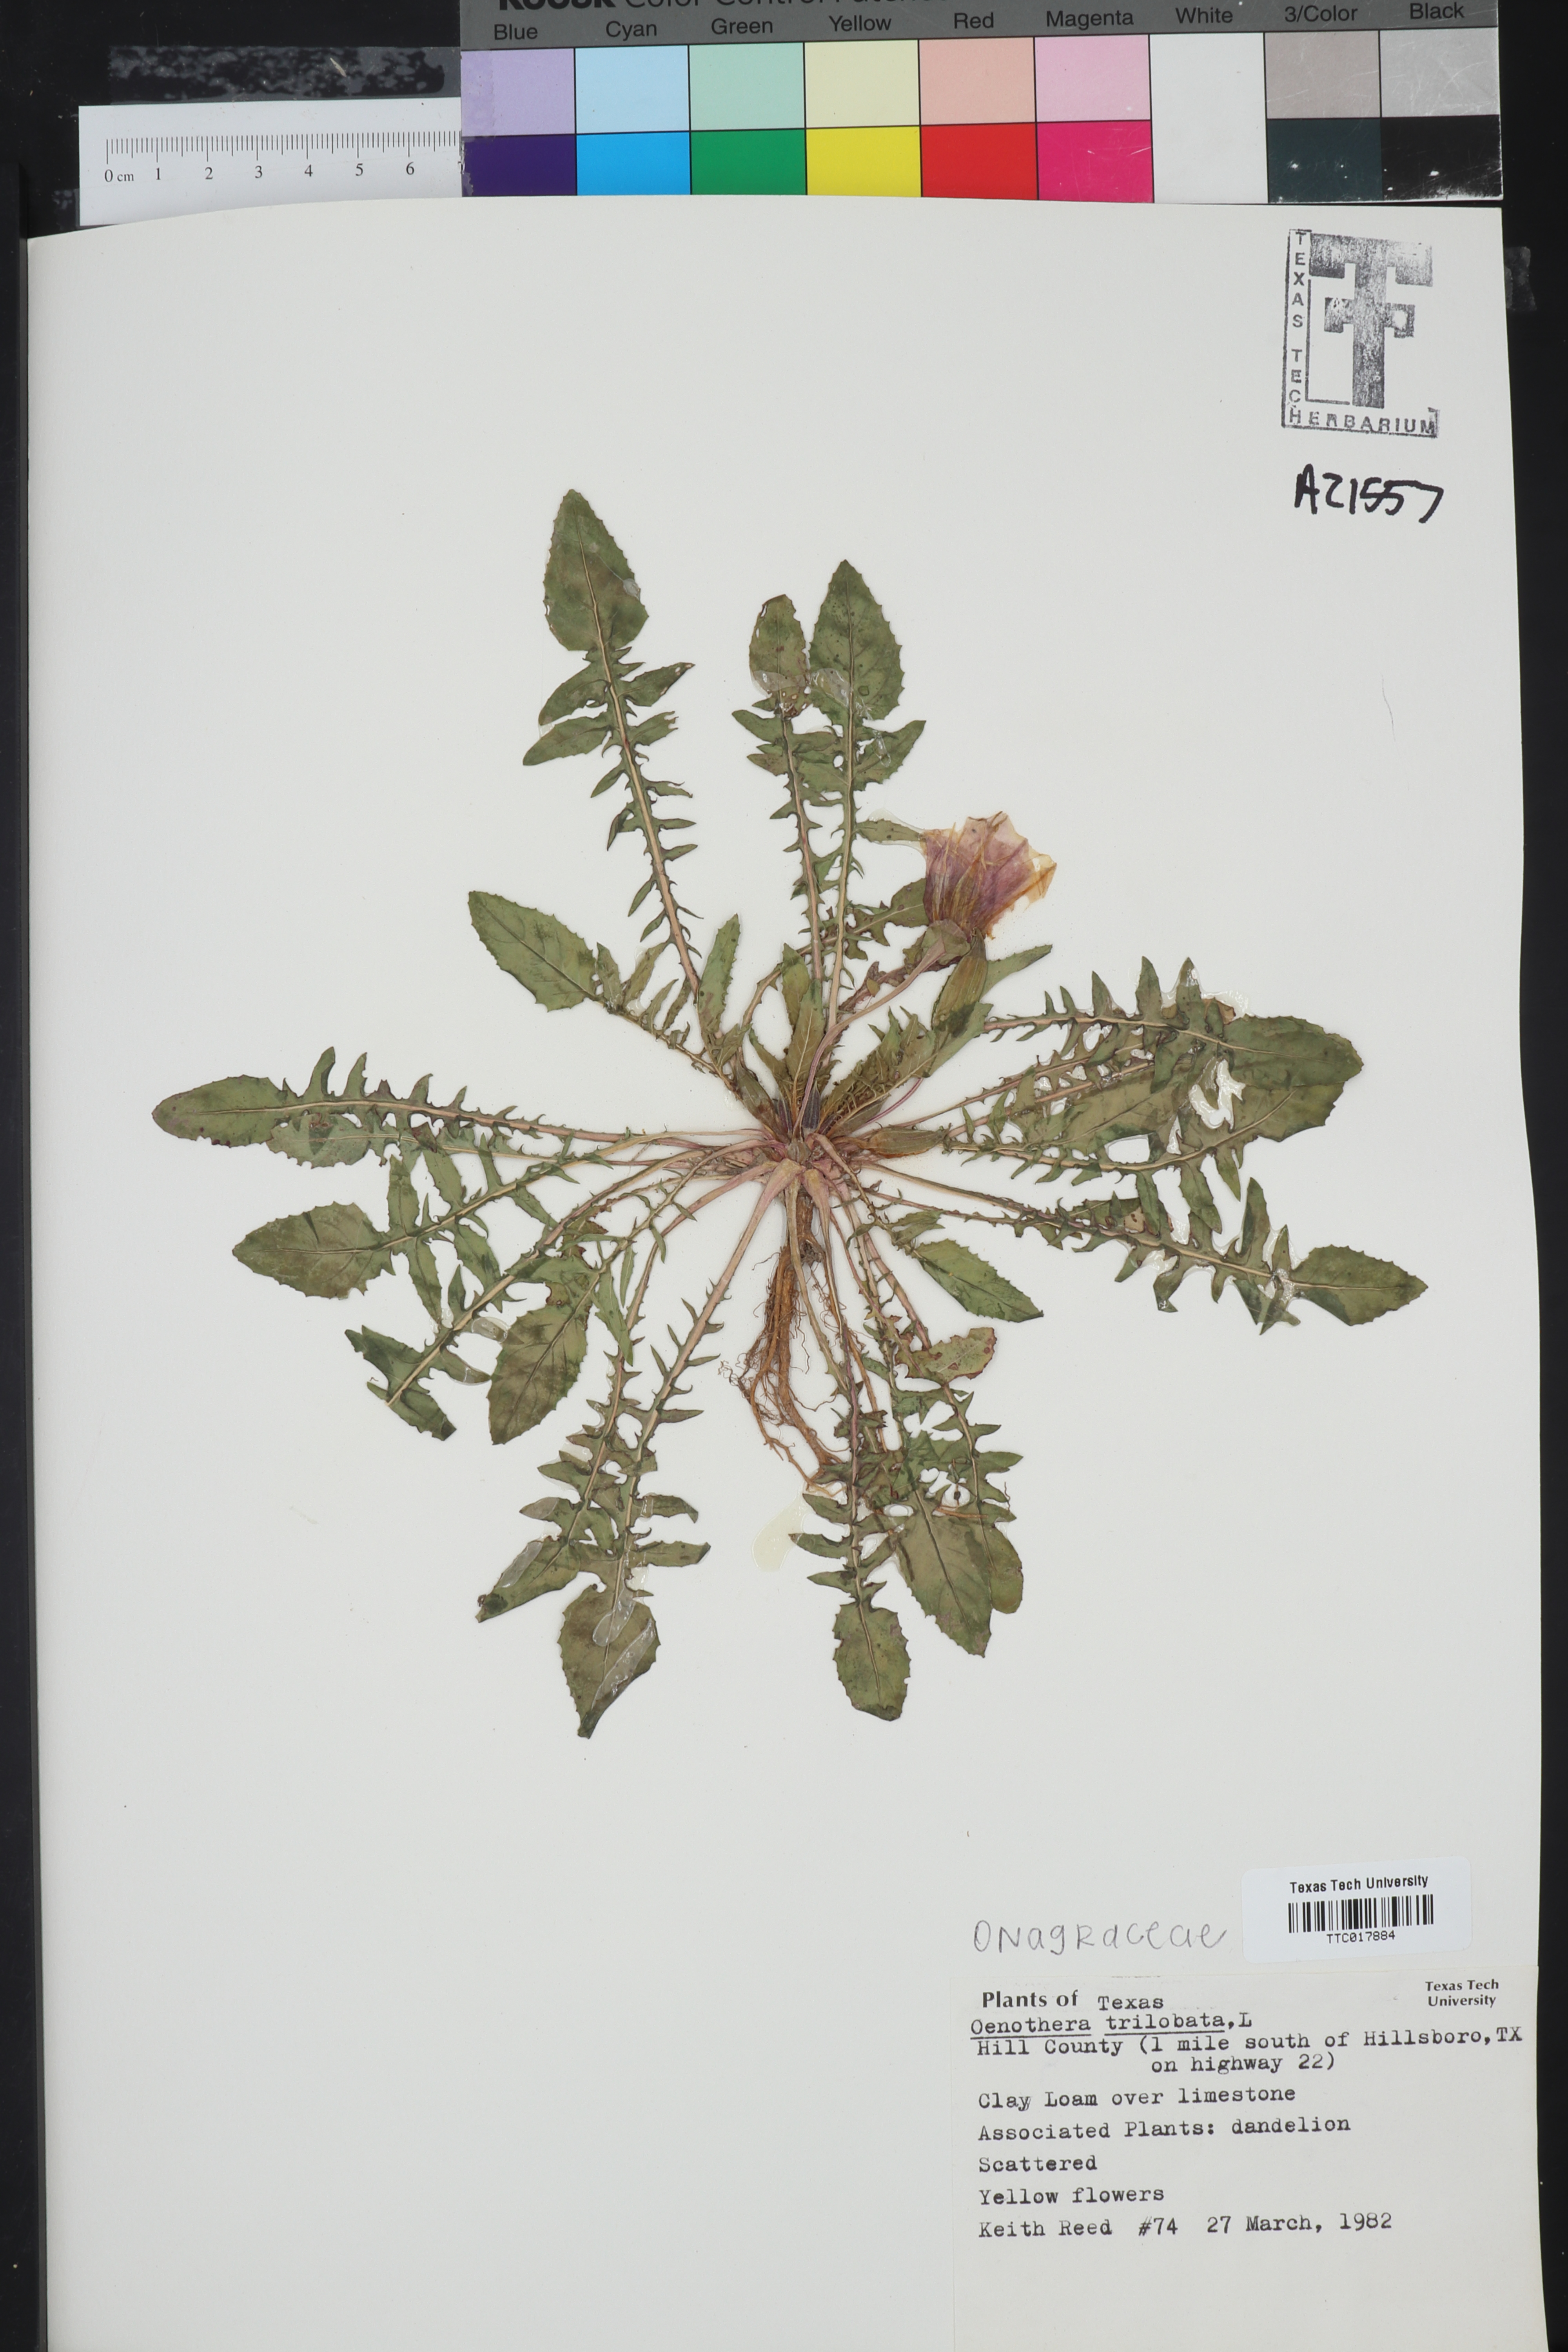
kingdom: Plantae
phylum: Tracheophyta
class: Magnoliopsida
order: Myrtales
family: Onagraceae
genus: Oenothera
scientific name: Oenothera triloba
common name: Sessile evening-primrose
